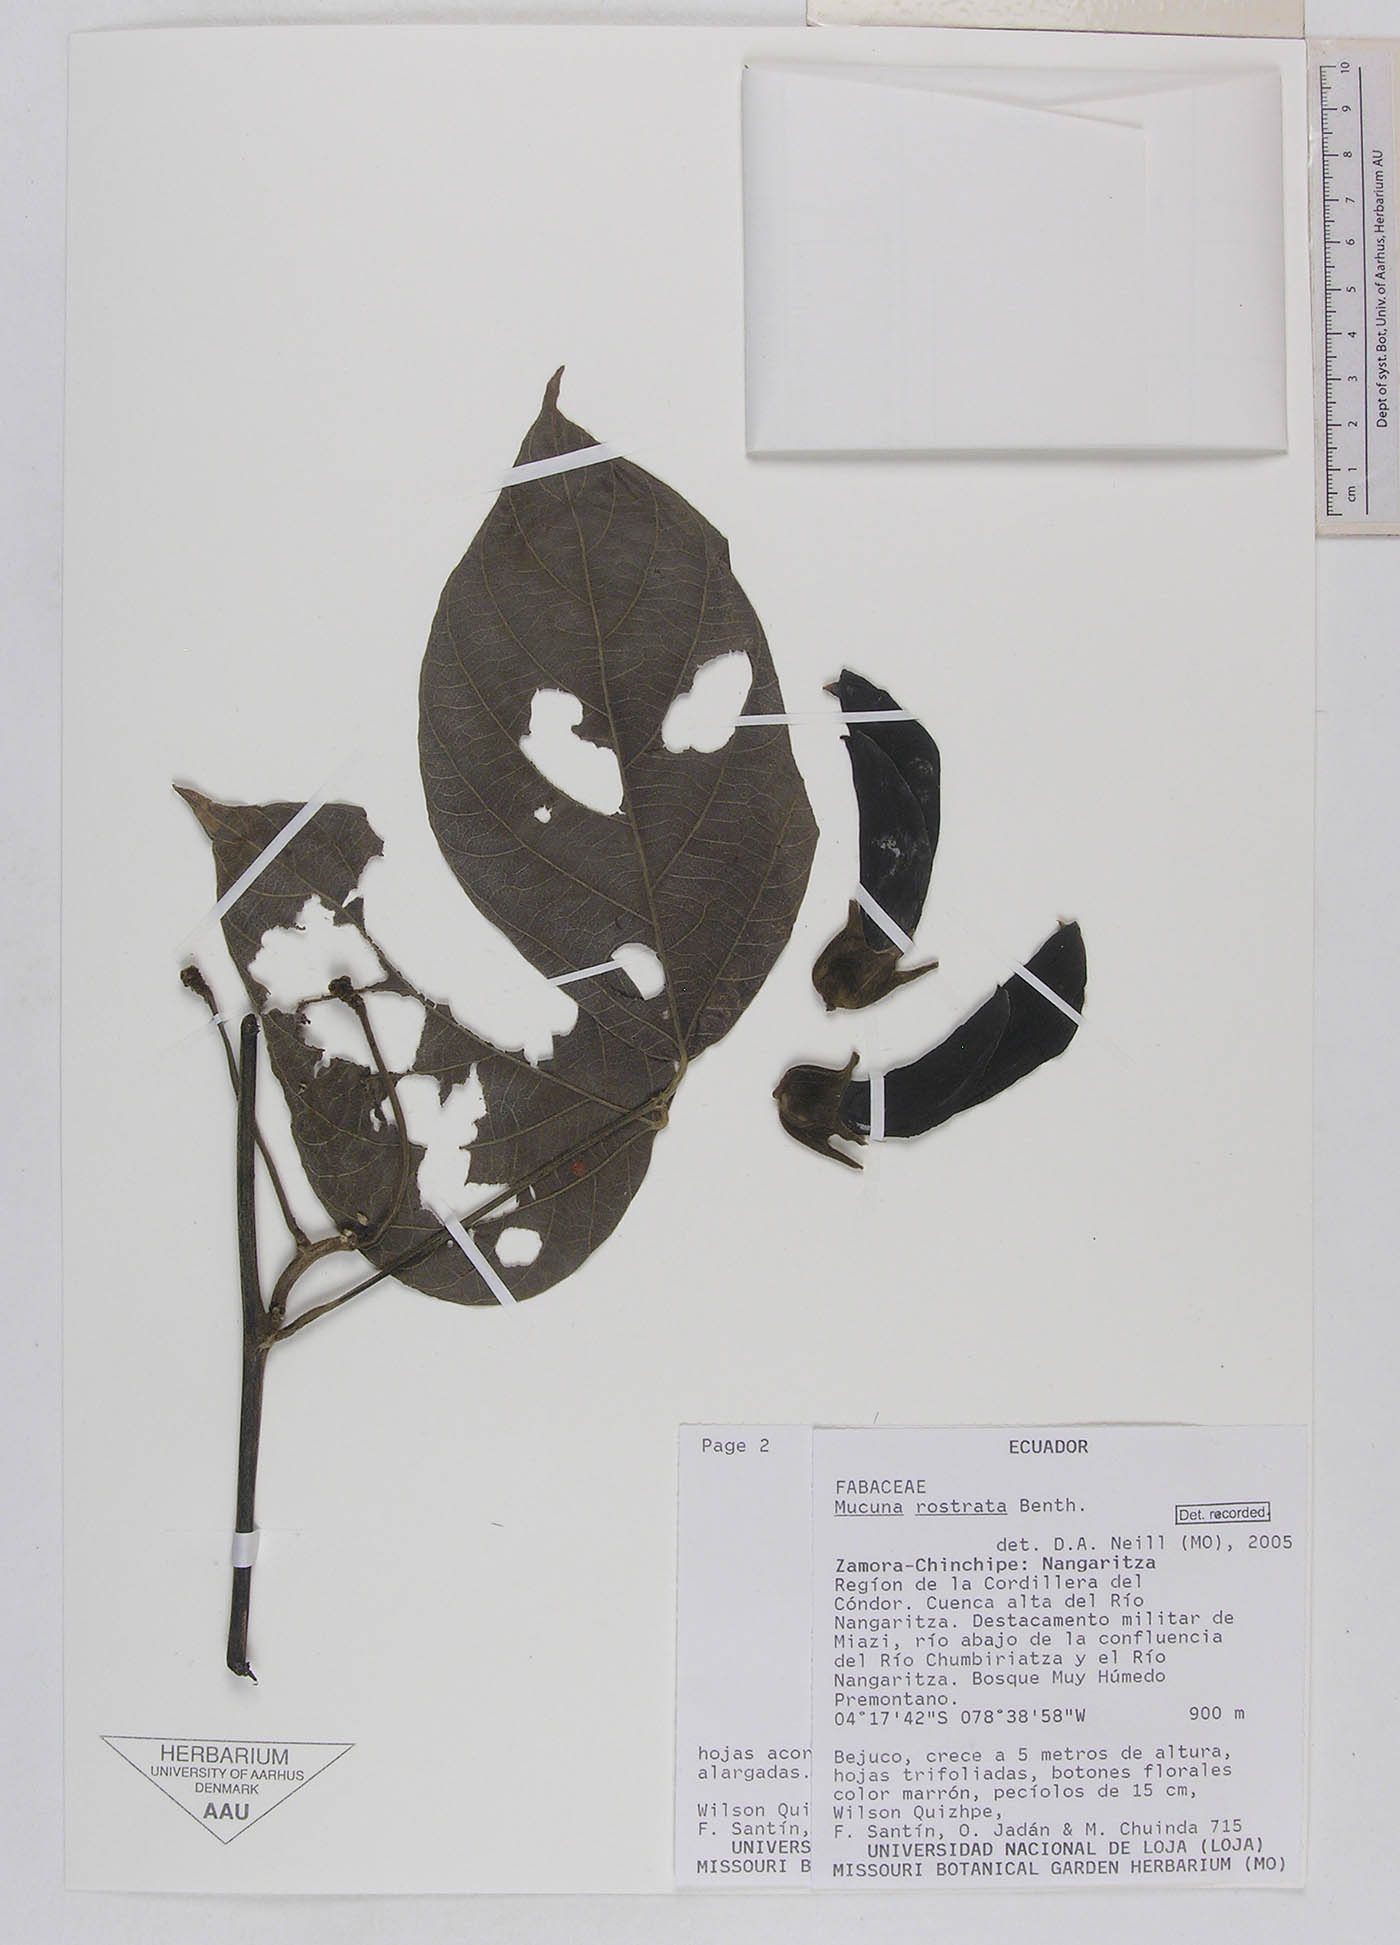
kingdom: Plantae
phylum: Tracheophyta
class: Magnoliopsida
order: Fabales
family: Fabaceae
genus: Mucuna
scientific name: Mucuna elliptica
